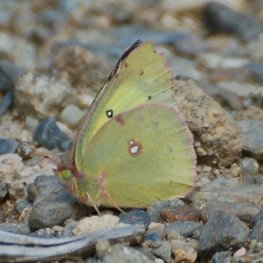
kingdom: Animalia
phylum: Arthropoda
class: Insecta
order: Lepidoptera
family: Pieridae
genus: Colias
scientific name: Colias philodice
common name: Clouded Sulphur
